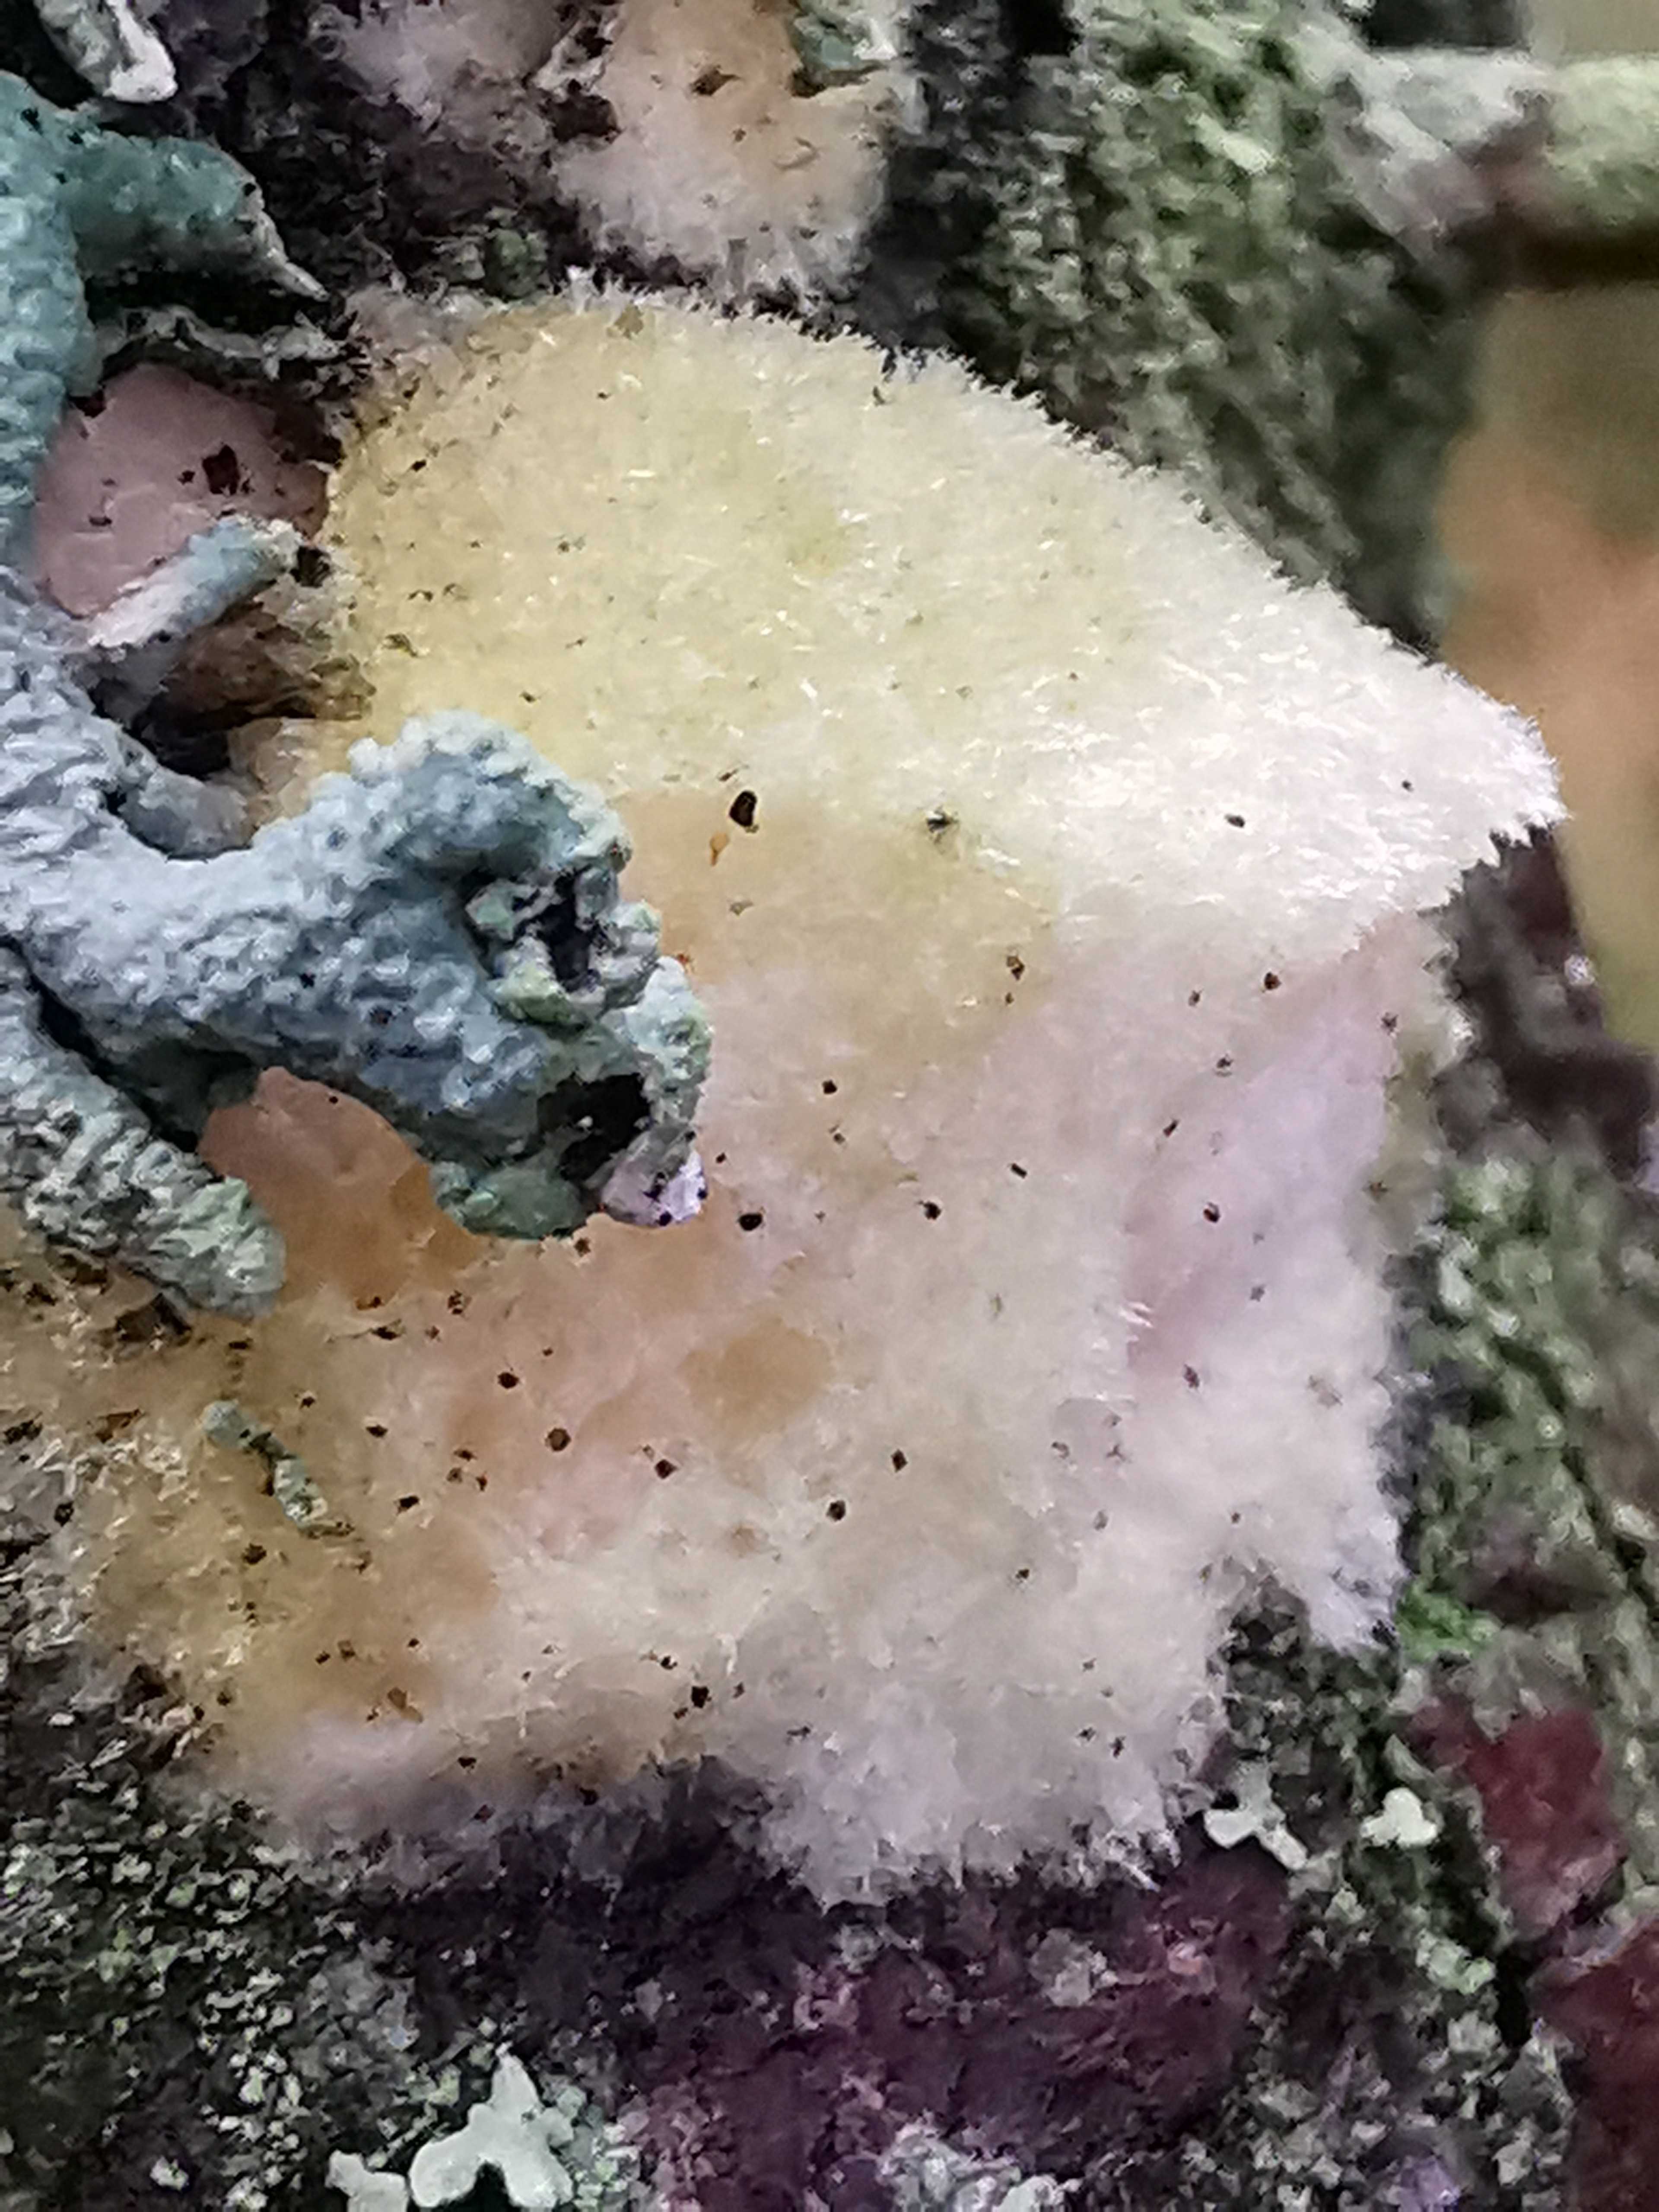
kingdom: Fungi
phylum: Basidiomycota
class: Agaricomycetes
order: Polyporales
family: Polyporaceae
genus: Diplomitoporus
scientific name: Diplomitoporus flavescens
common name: fyrre-elastikporesvamp
